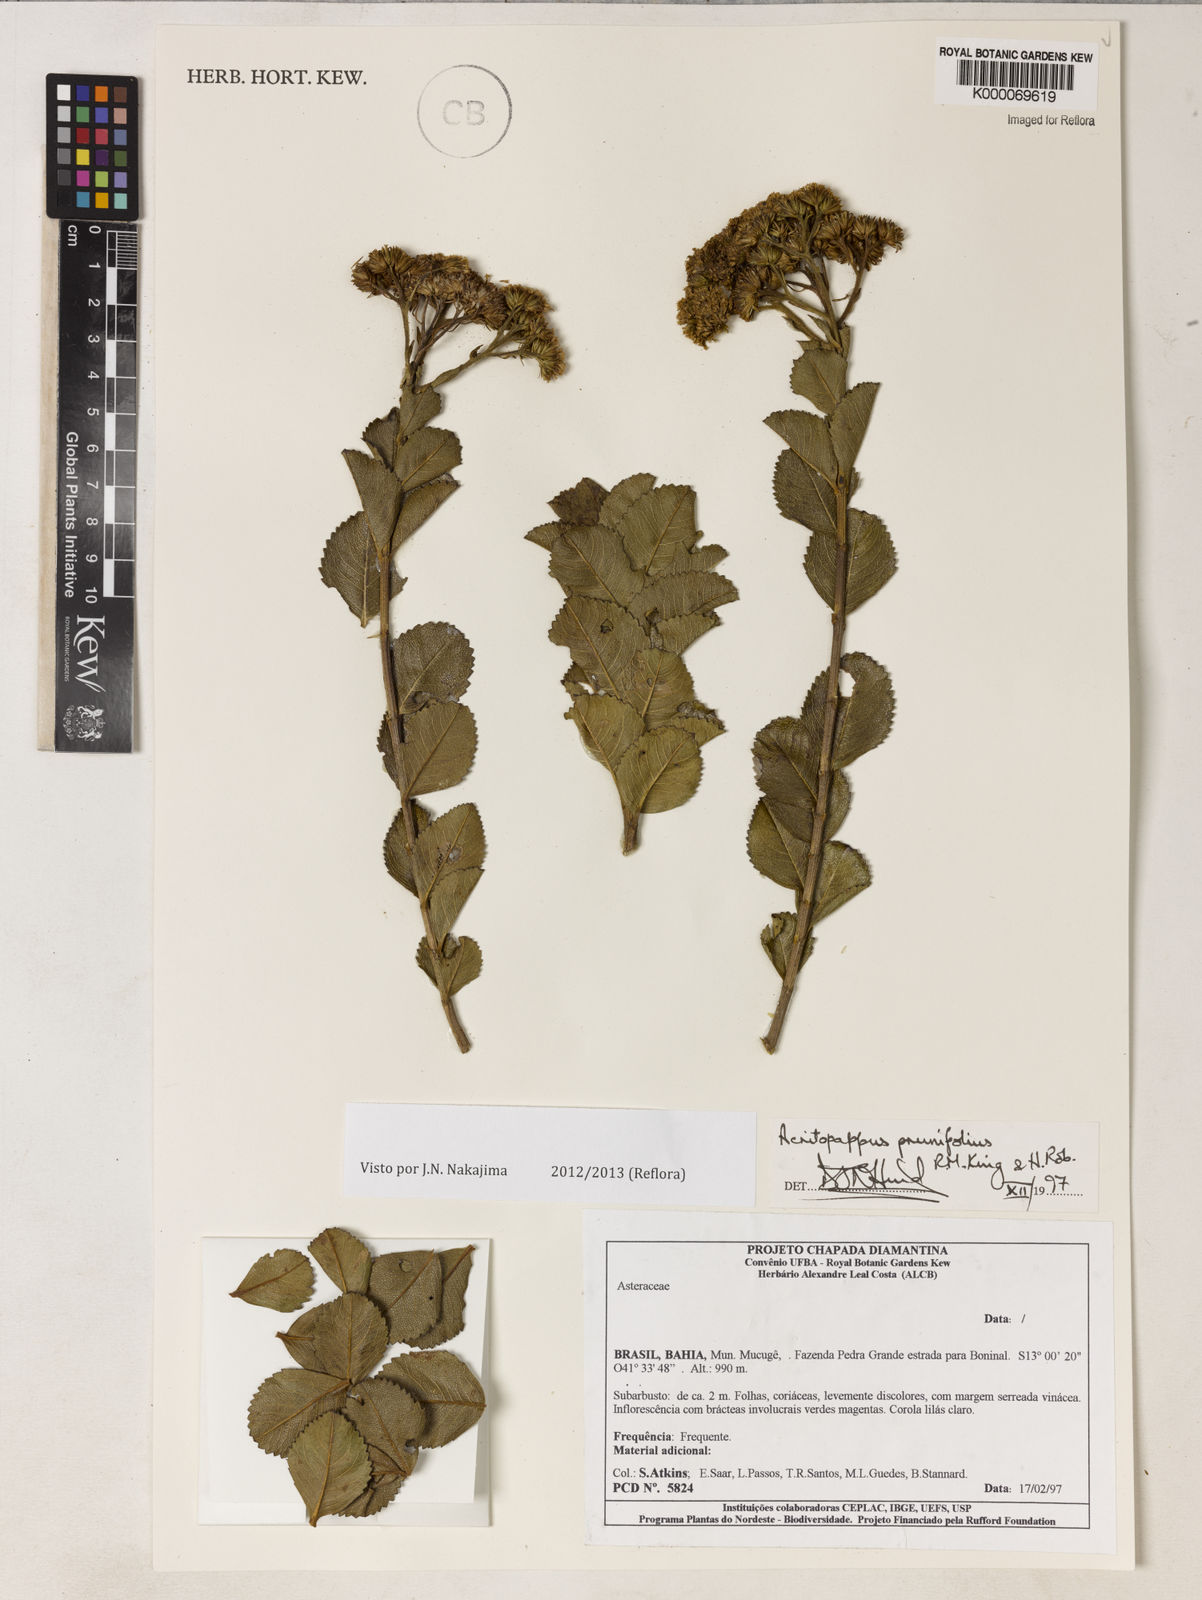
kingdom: Plantae
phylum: Tracheophyta
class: Magnoliopsida
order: Asterales
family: Asteraceae
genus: Acritopappus
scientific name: Acritopappus prunifolius
